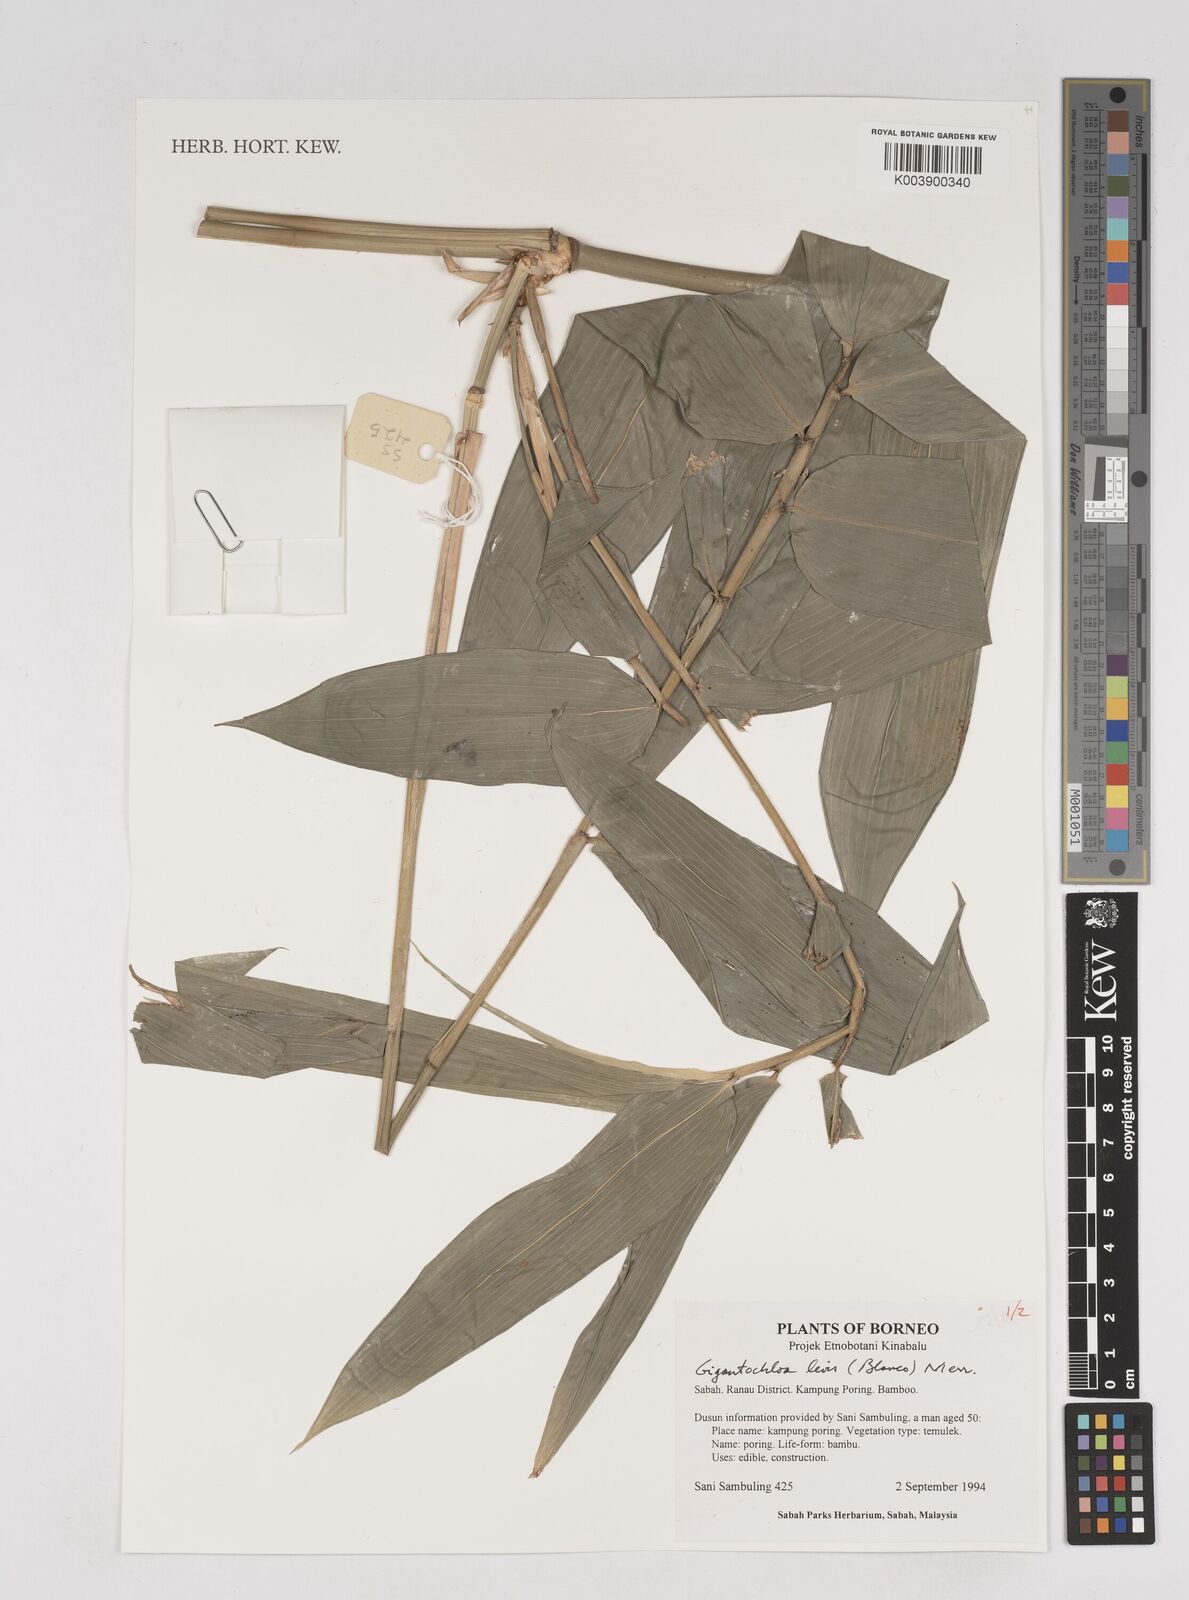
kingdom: Plantae
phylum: Tracheophyta
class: Liliopsida
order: Poales
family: Poaceae
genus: Gigantochloa
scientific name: Gigantochloa levis
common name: Smooth-shoot gigantochloa
